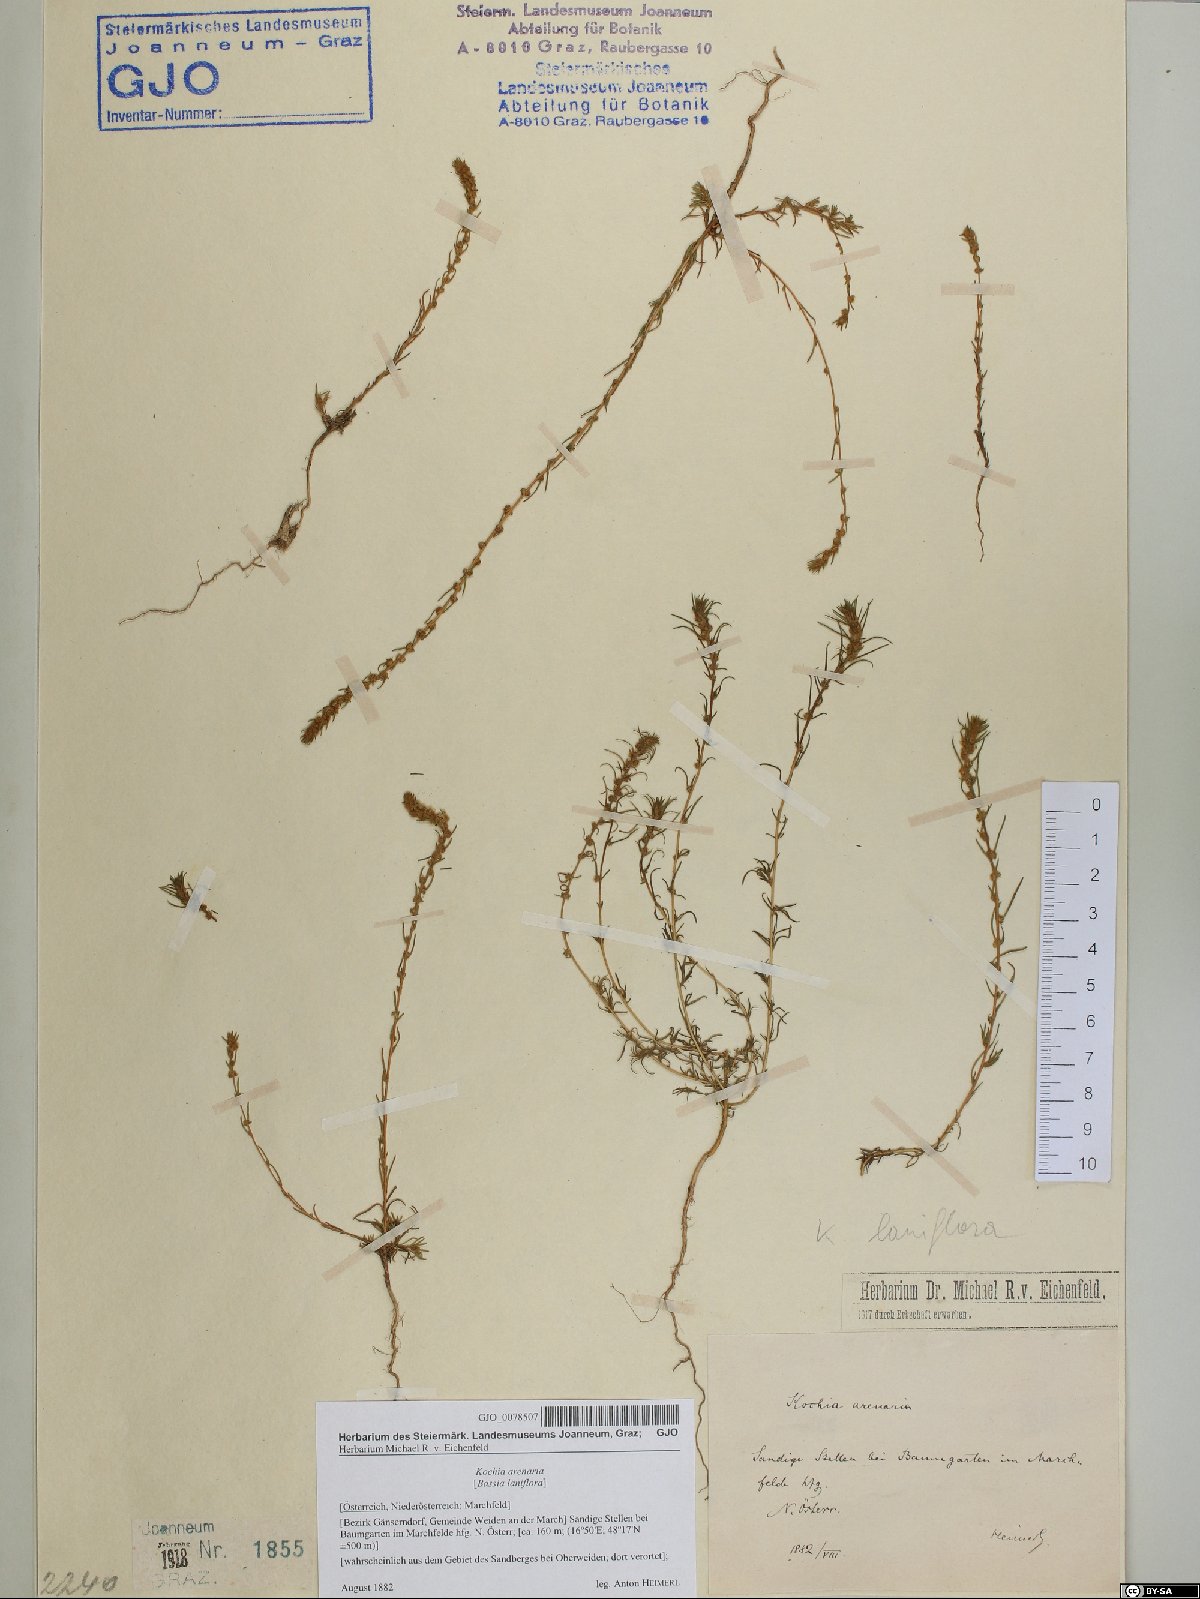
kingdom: Plantae
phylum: Tracheophyta
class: Magnoliopsida
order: Caryophyllales
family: Amaranthaceae
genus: Bassia
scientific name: Bassia laniflora
